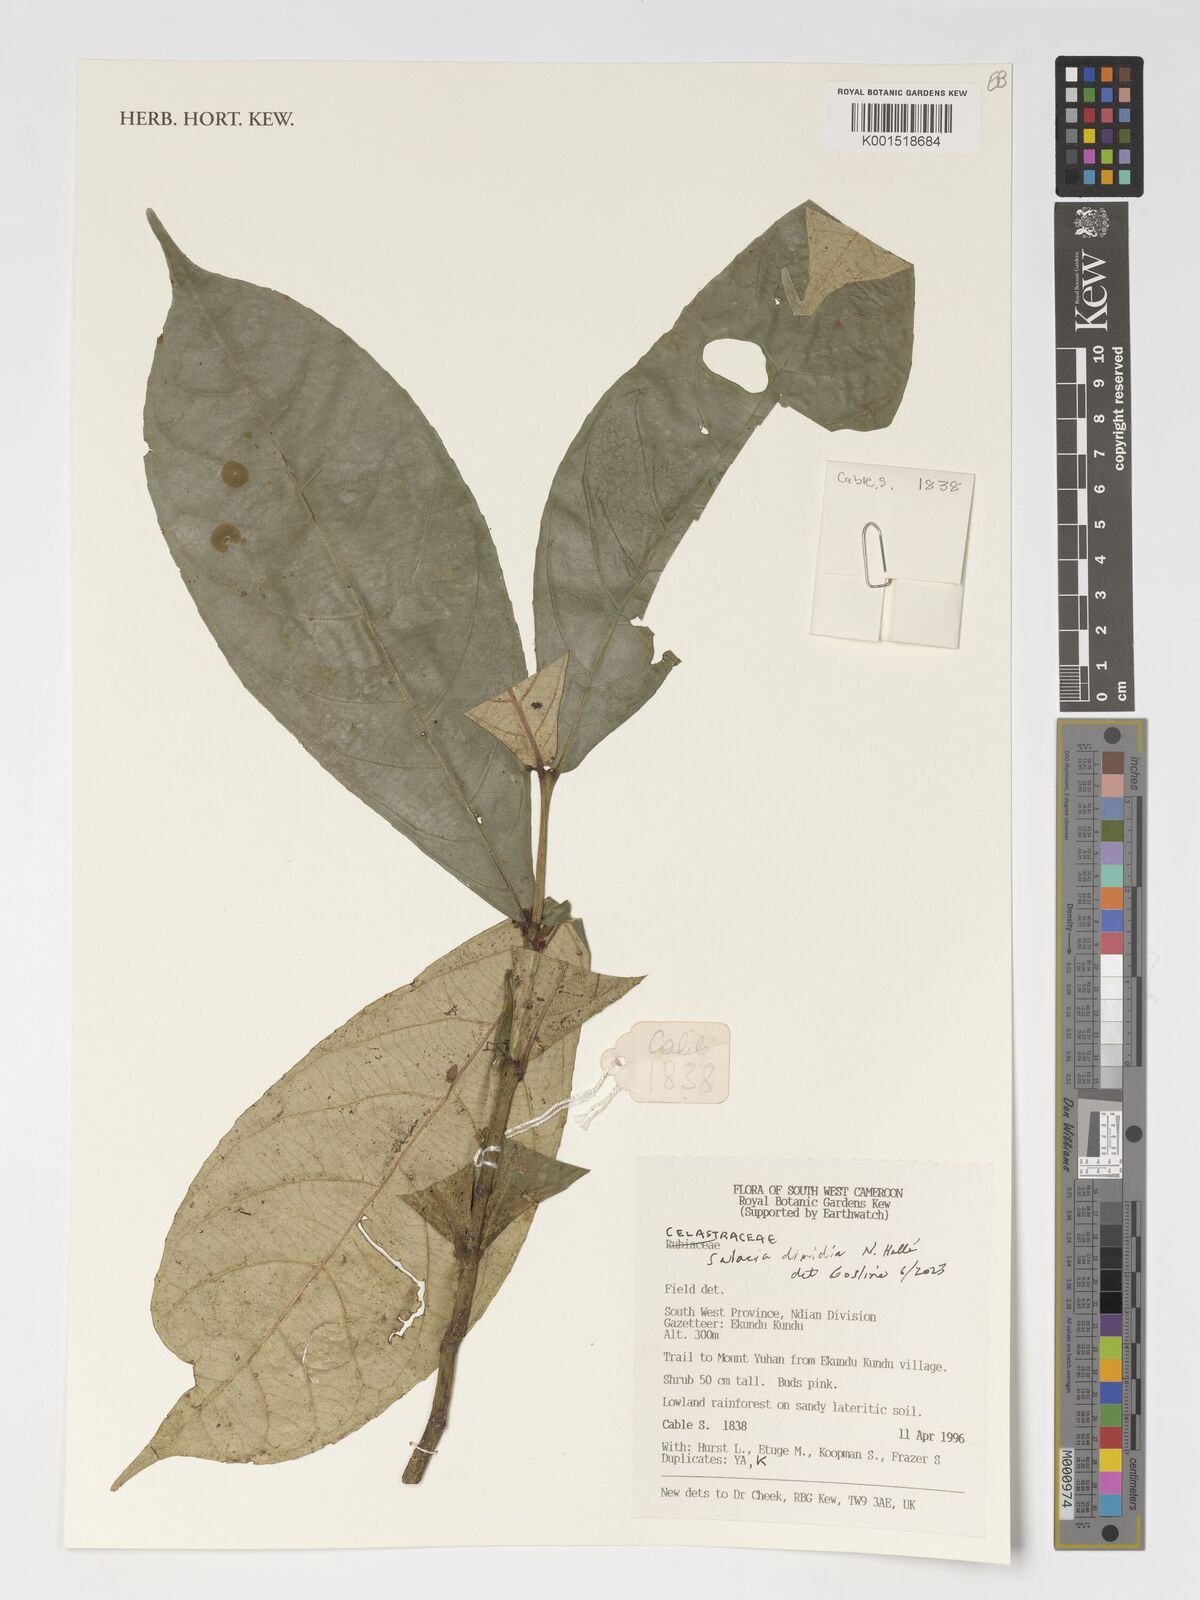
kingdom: Plantae
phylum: Tracheophyta
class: Magnoliopsida
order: Celastrales
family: Celastraceae
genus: Salacia
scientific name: Salacia dimidia
